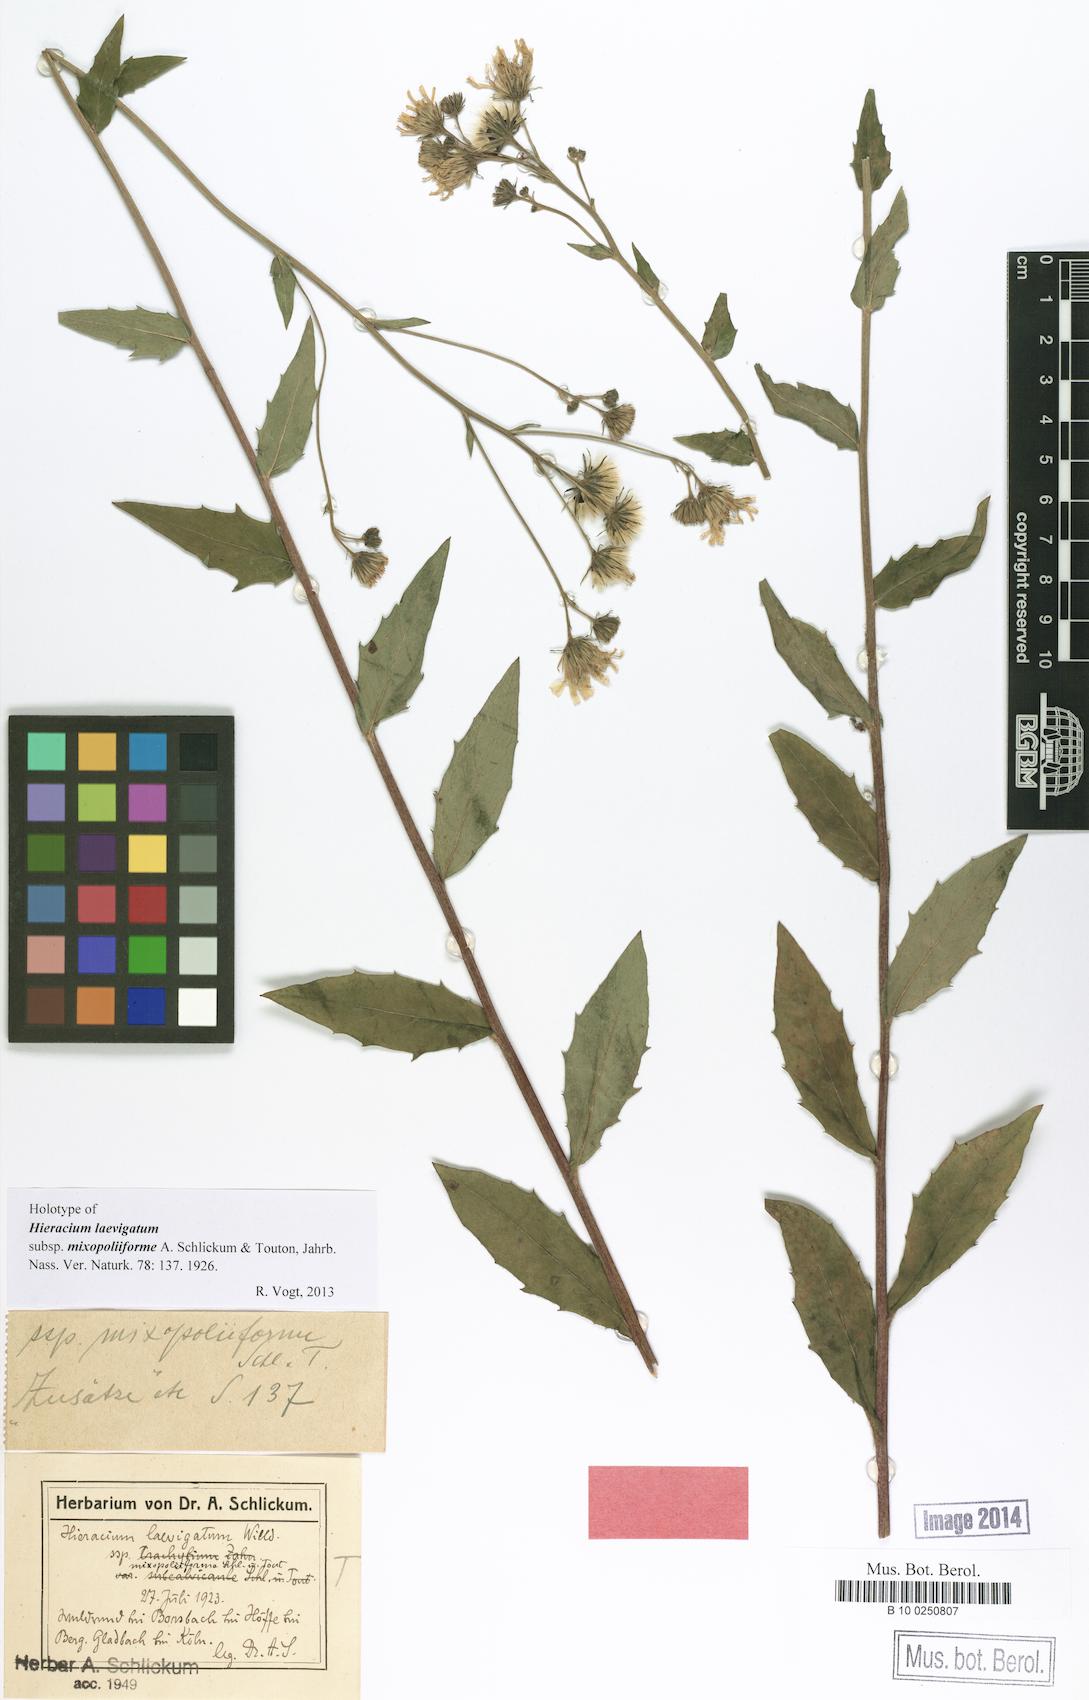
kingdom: Plantae
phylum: Tracheophyta
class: Magnoliopsida
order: Asterales
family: Asteraceae
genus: Hieracium
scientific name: Hieracium laevigatum
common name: Smooth hawkweed
